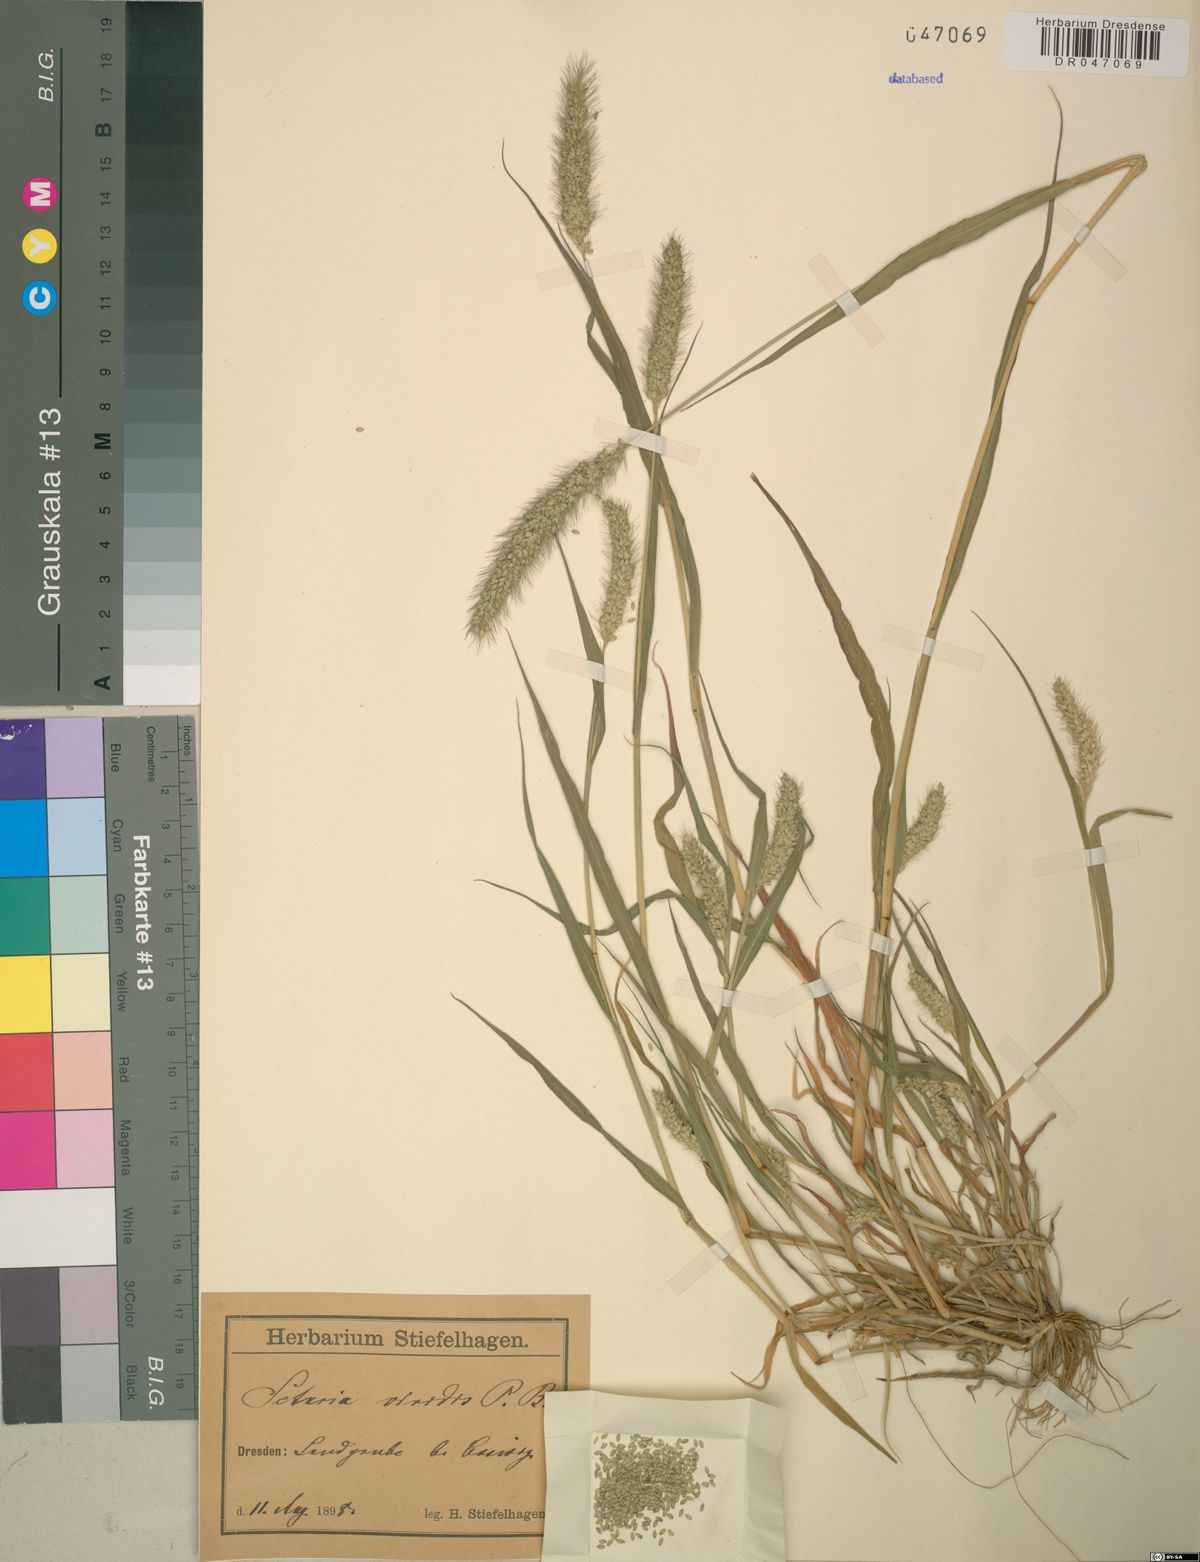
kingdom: Plantae
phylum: Tracheophyta
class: Liliopsida
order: Poales
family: Poaceae
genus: Setaria
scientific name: Setaria viridis
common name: Green bristlegrass
